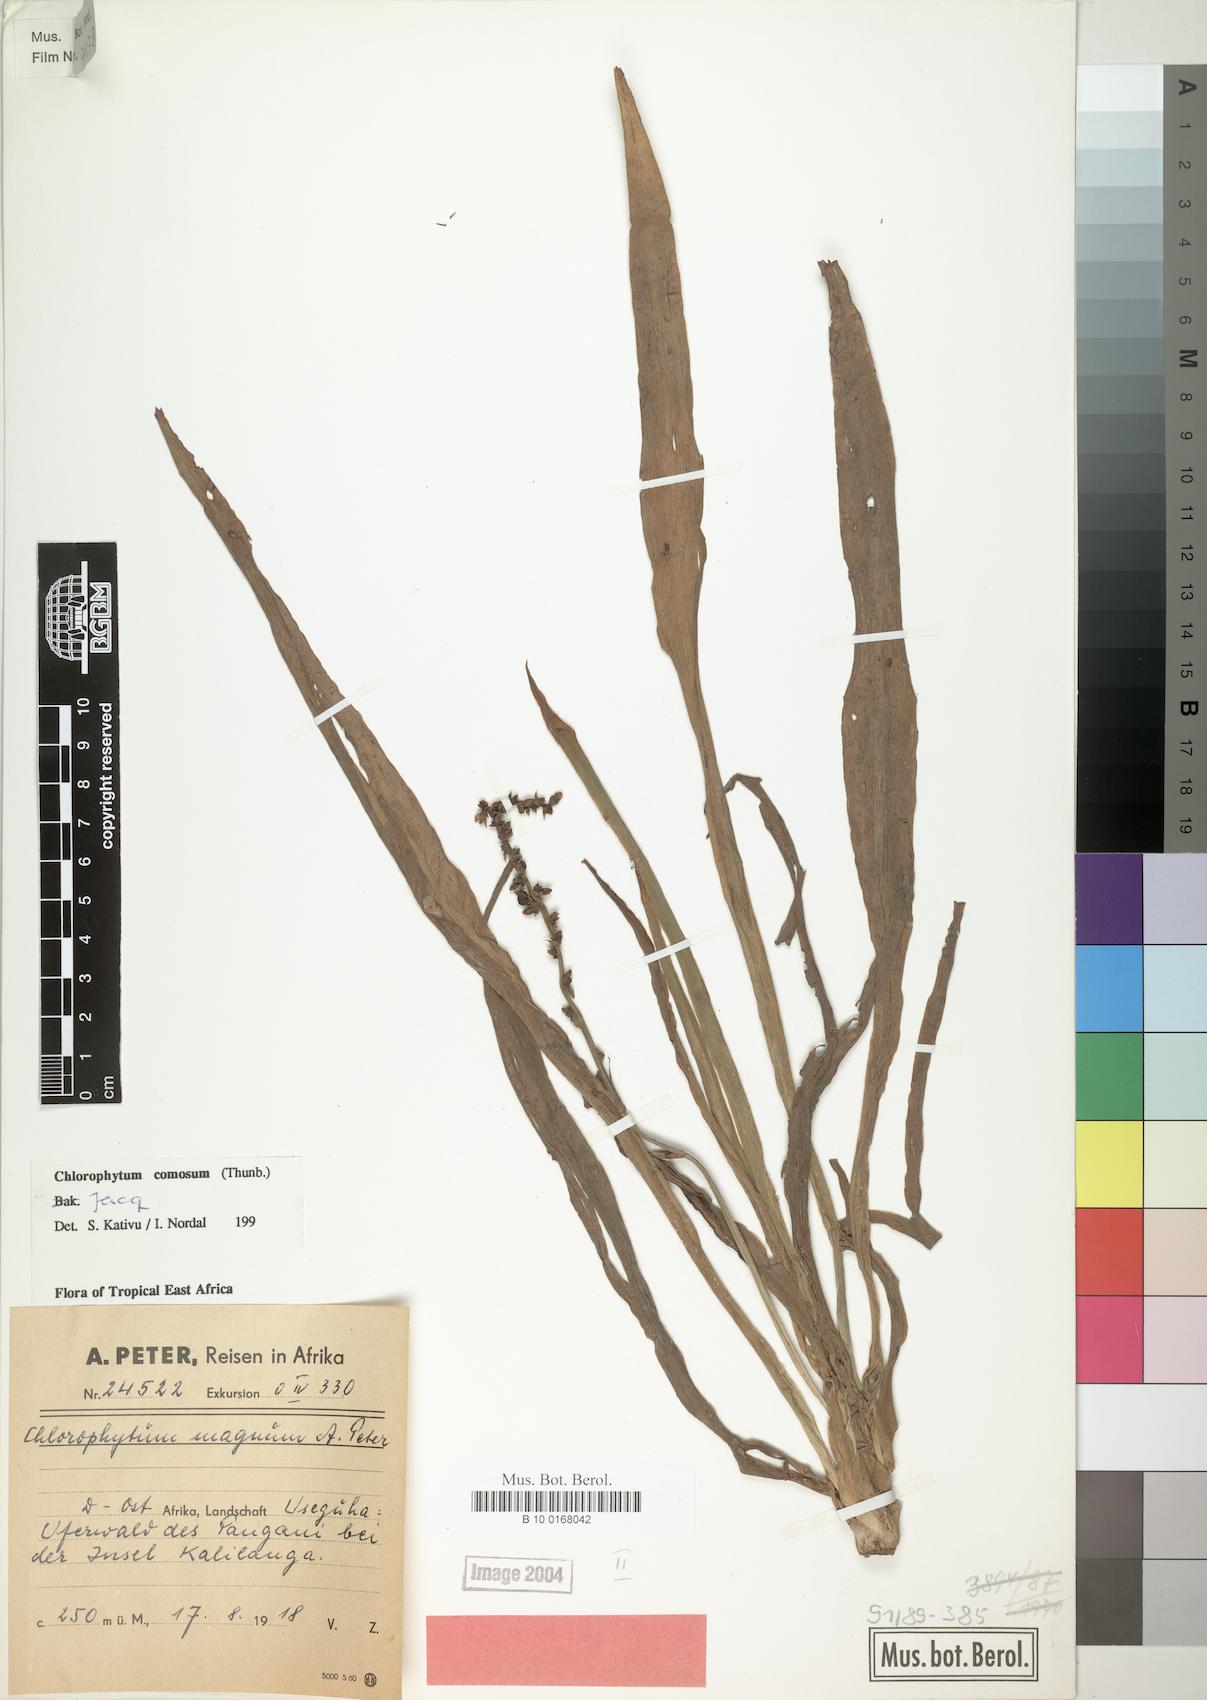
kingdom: Plantae
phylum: Tracheophyta
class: Liliopsida
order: Asparagales
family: Asparagaceae
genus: Chlorophytum
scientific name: Chlorophytum comosum
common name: Spider plant
